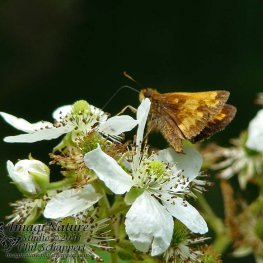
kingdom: Animalia
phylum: Arthropoda
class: Insecta
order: Lepidoptera
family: Hesperiidae
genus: Lon
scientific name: Lon hobomok
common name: Hobomok Skipper
